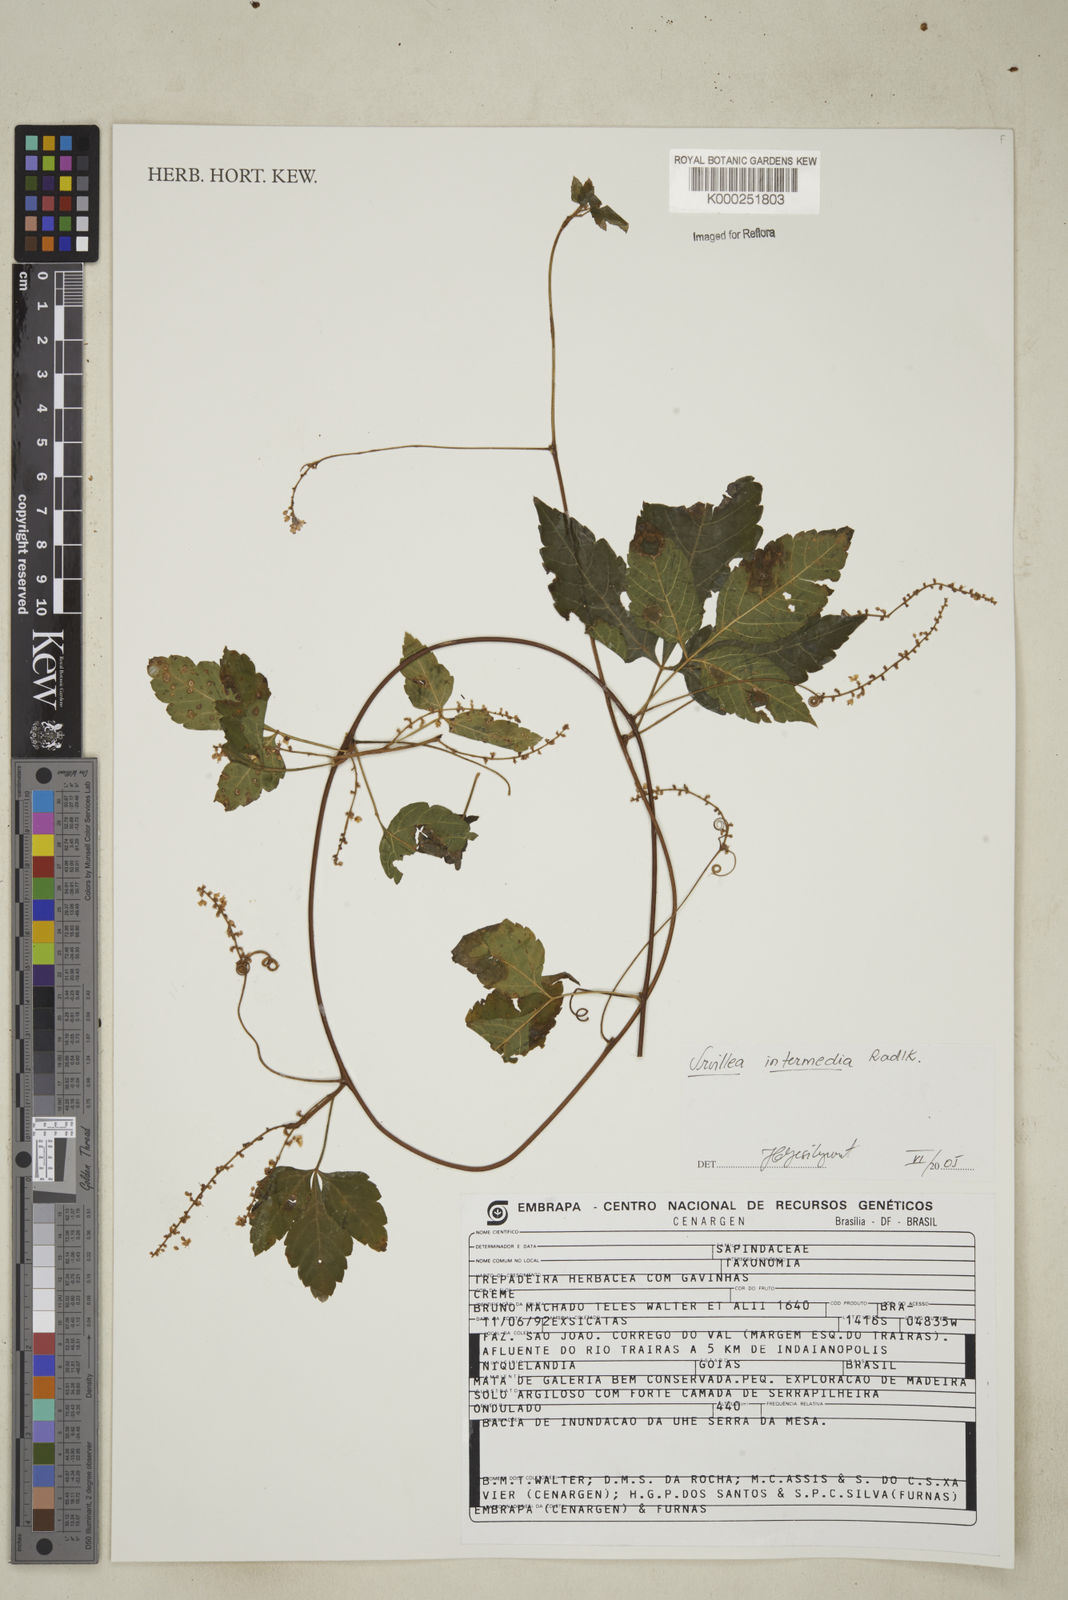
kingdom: Plantae
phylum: Tracheophyta
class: Magnoliopsida
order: Sapindales
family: Sapindaceae
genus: Urvillea
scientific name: Urvillea intermedia
